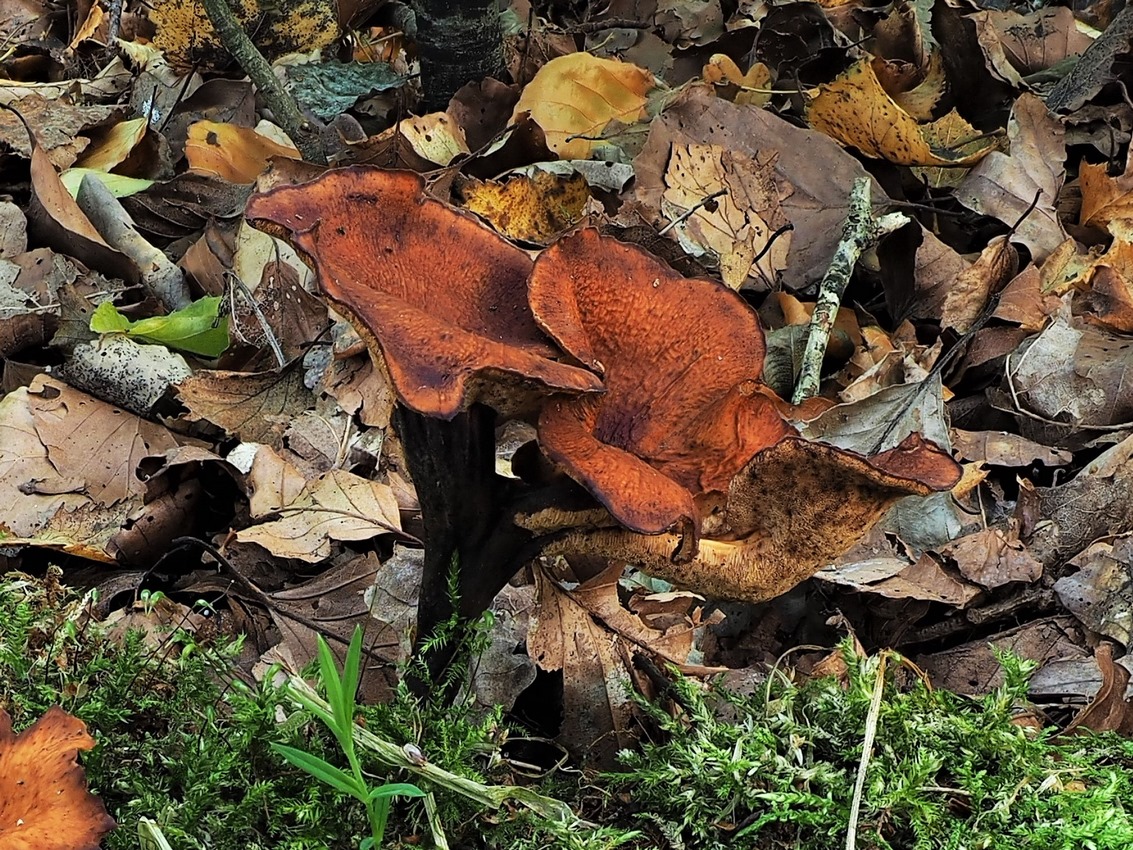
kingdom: Fungi
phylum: Basidiomycota
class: Agaricomycetes
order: Polyporales
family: Polyporaceae
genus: Picipes
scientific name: Picipes tubaeformis
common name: trompet-stilkporesvamp
